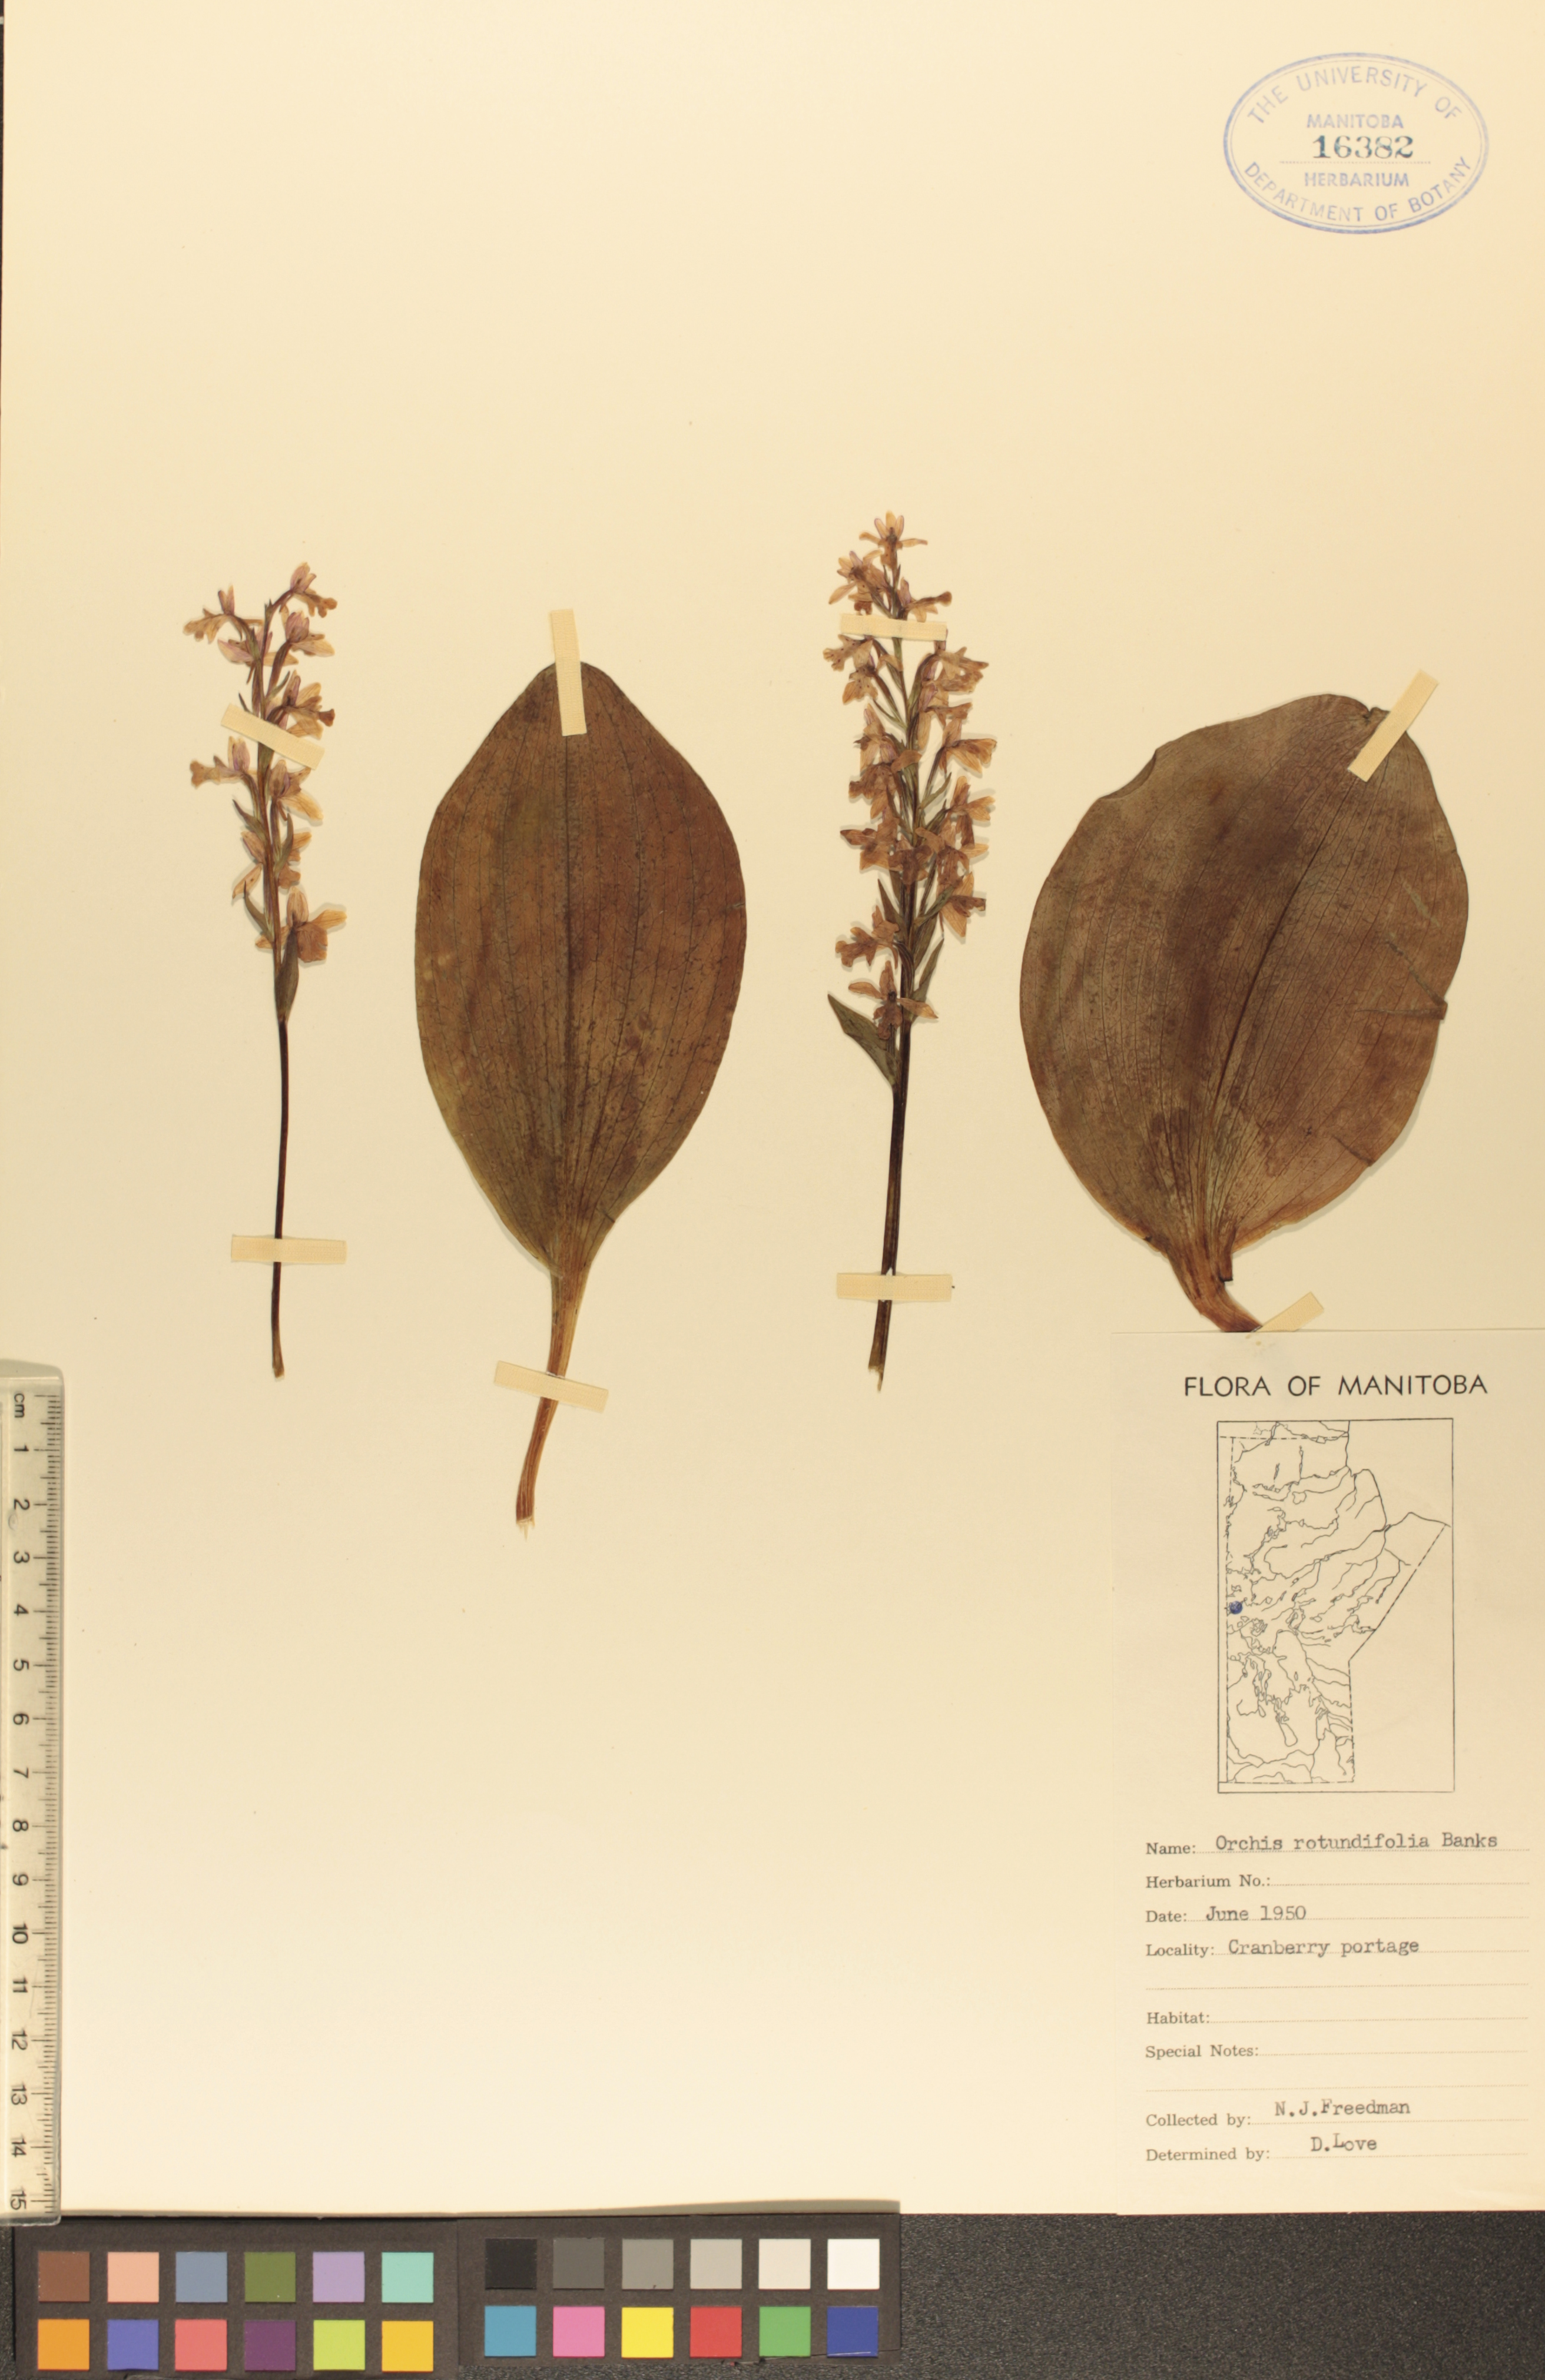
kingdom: Plantae
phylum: Tracheophyta
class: Liliopsida
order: Asparagales
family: Orchidaceae
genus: Galearis
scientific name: Galearis rotundifolia
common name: One-leaved orchis
